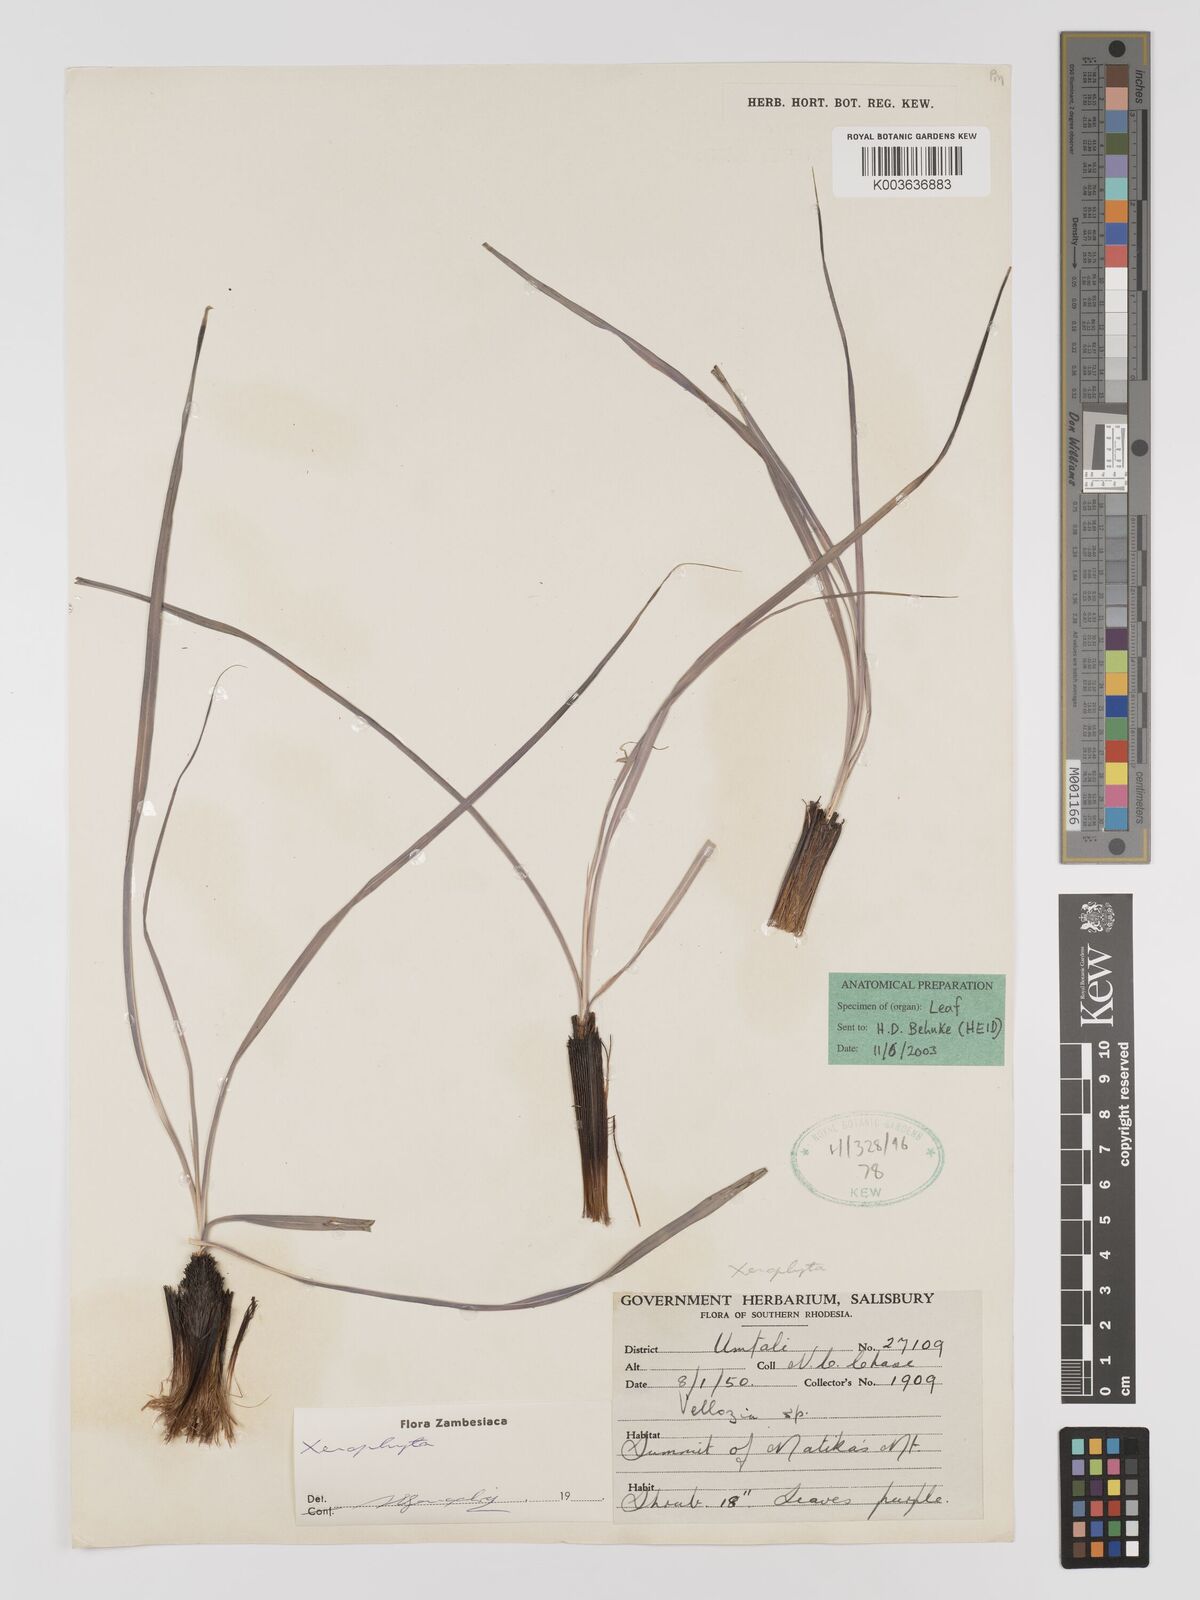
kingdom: Plantae
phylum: Tracheophyta
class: Liliopsida
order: Pandanales
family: Velloziaceae
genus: Xerophyta
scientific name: Xerophyta
